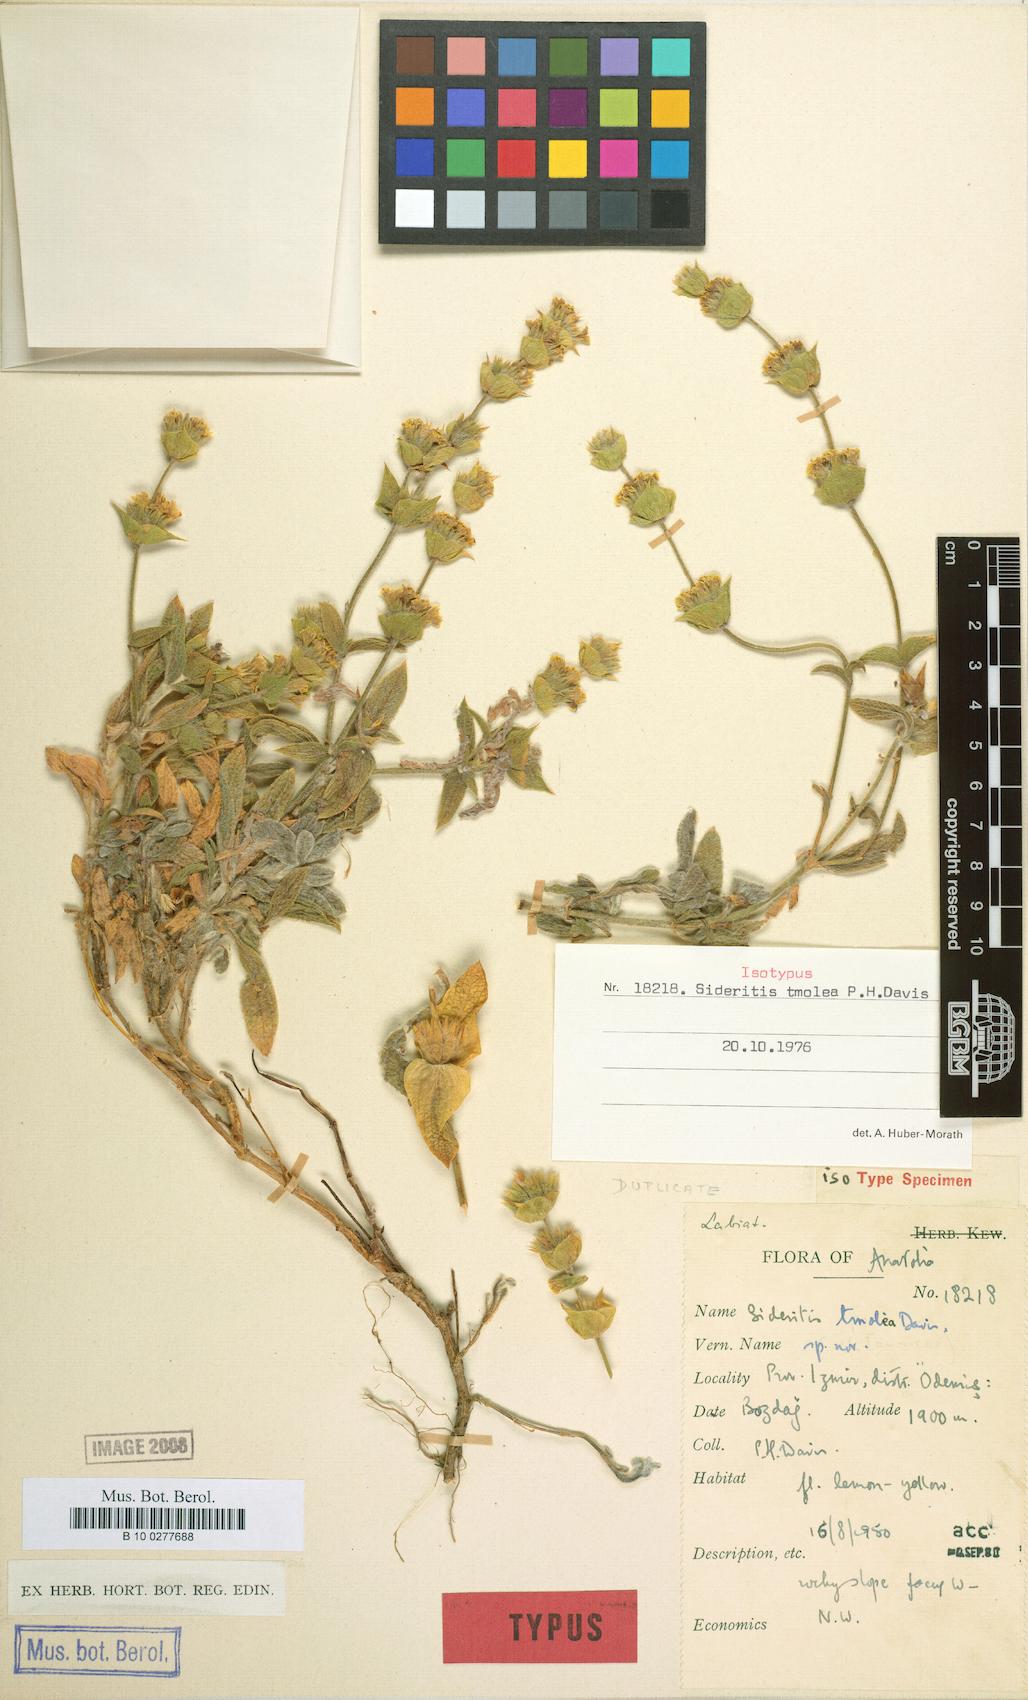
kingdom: Plantae
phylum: Tracheophyta
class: Magnoliopsida
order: Lamiales
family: Lamiaceae
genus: Sideritis
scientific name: Sideritis tmolea
